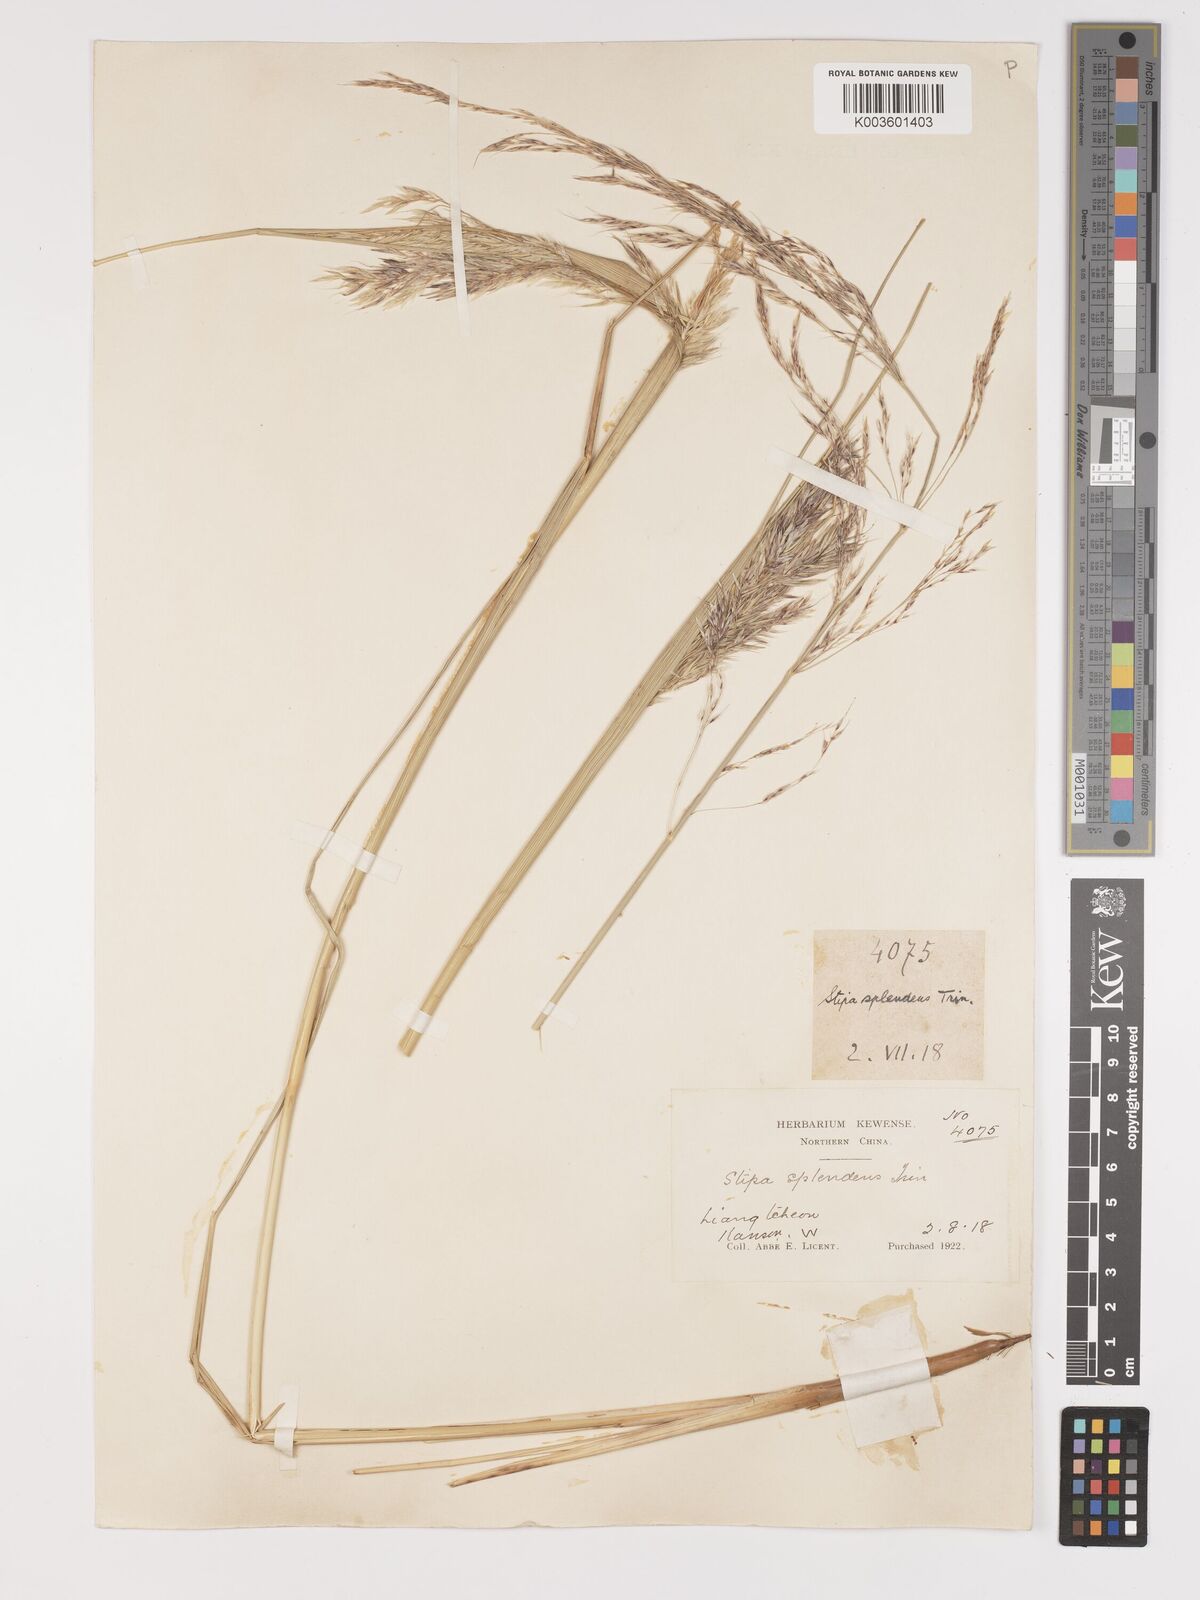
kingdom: Plantae
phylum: Tracheophyta
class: Liliopsida
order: Poales
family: Poaceae
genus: Neotrinia
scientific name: Neotrinia splendens
